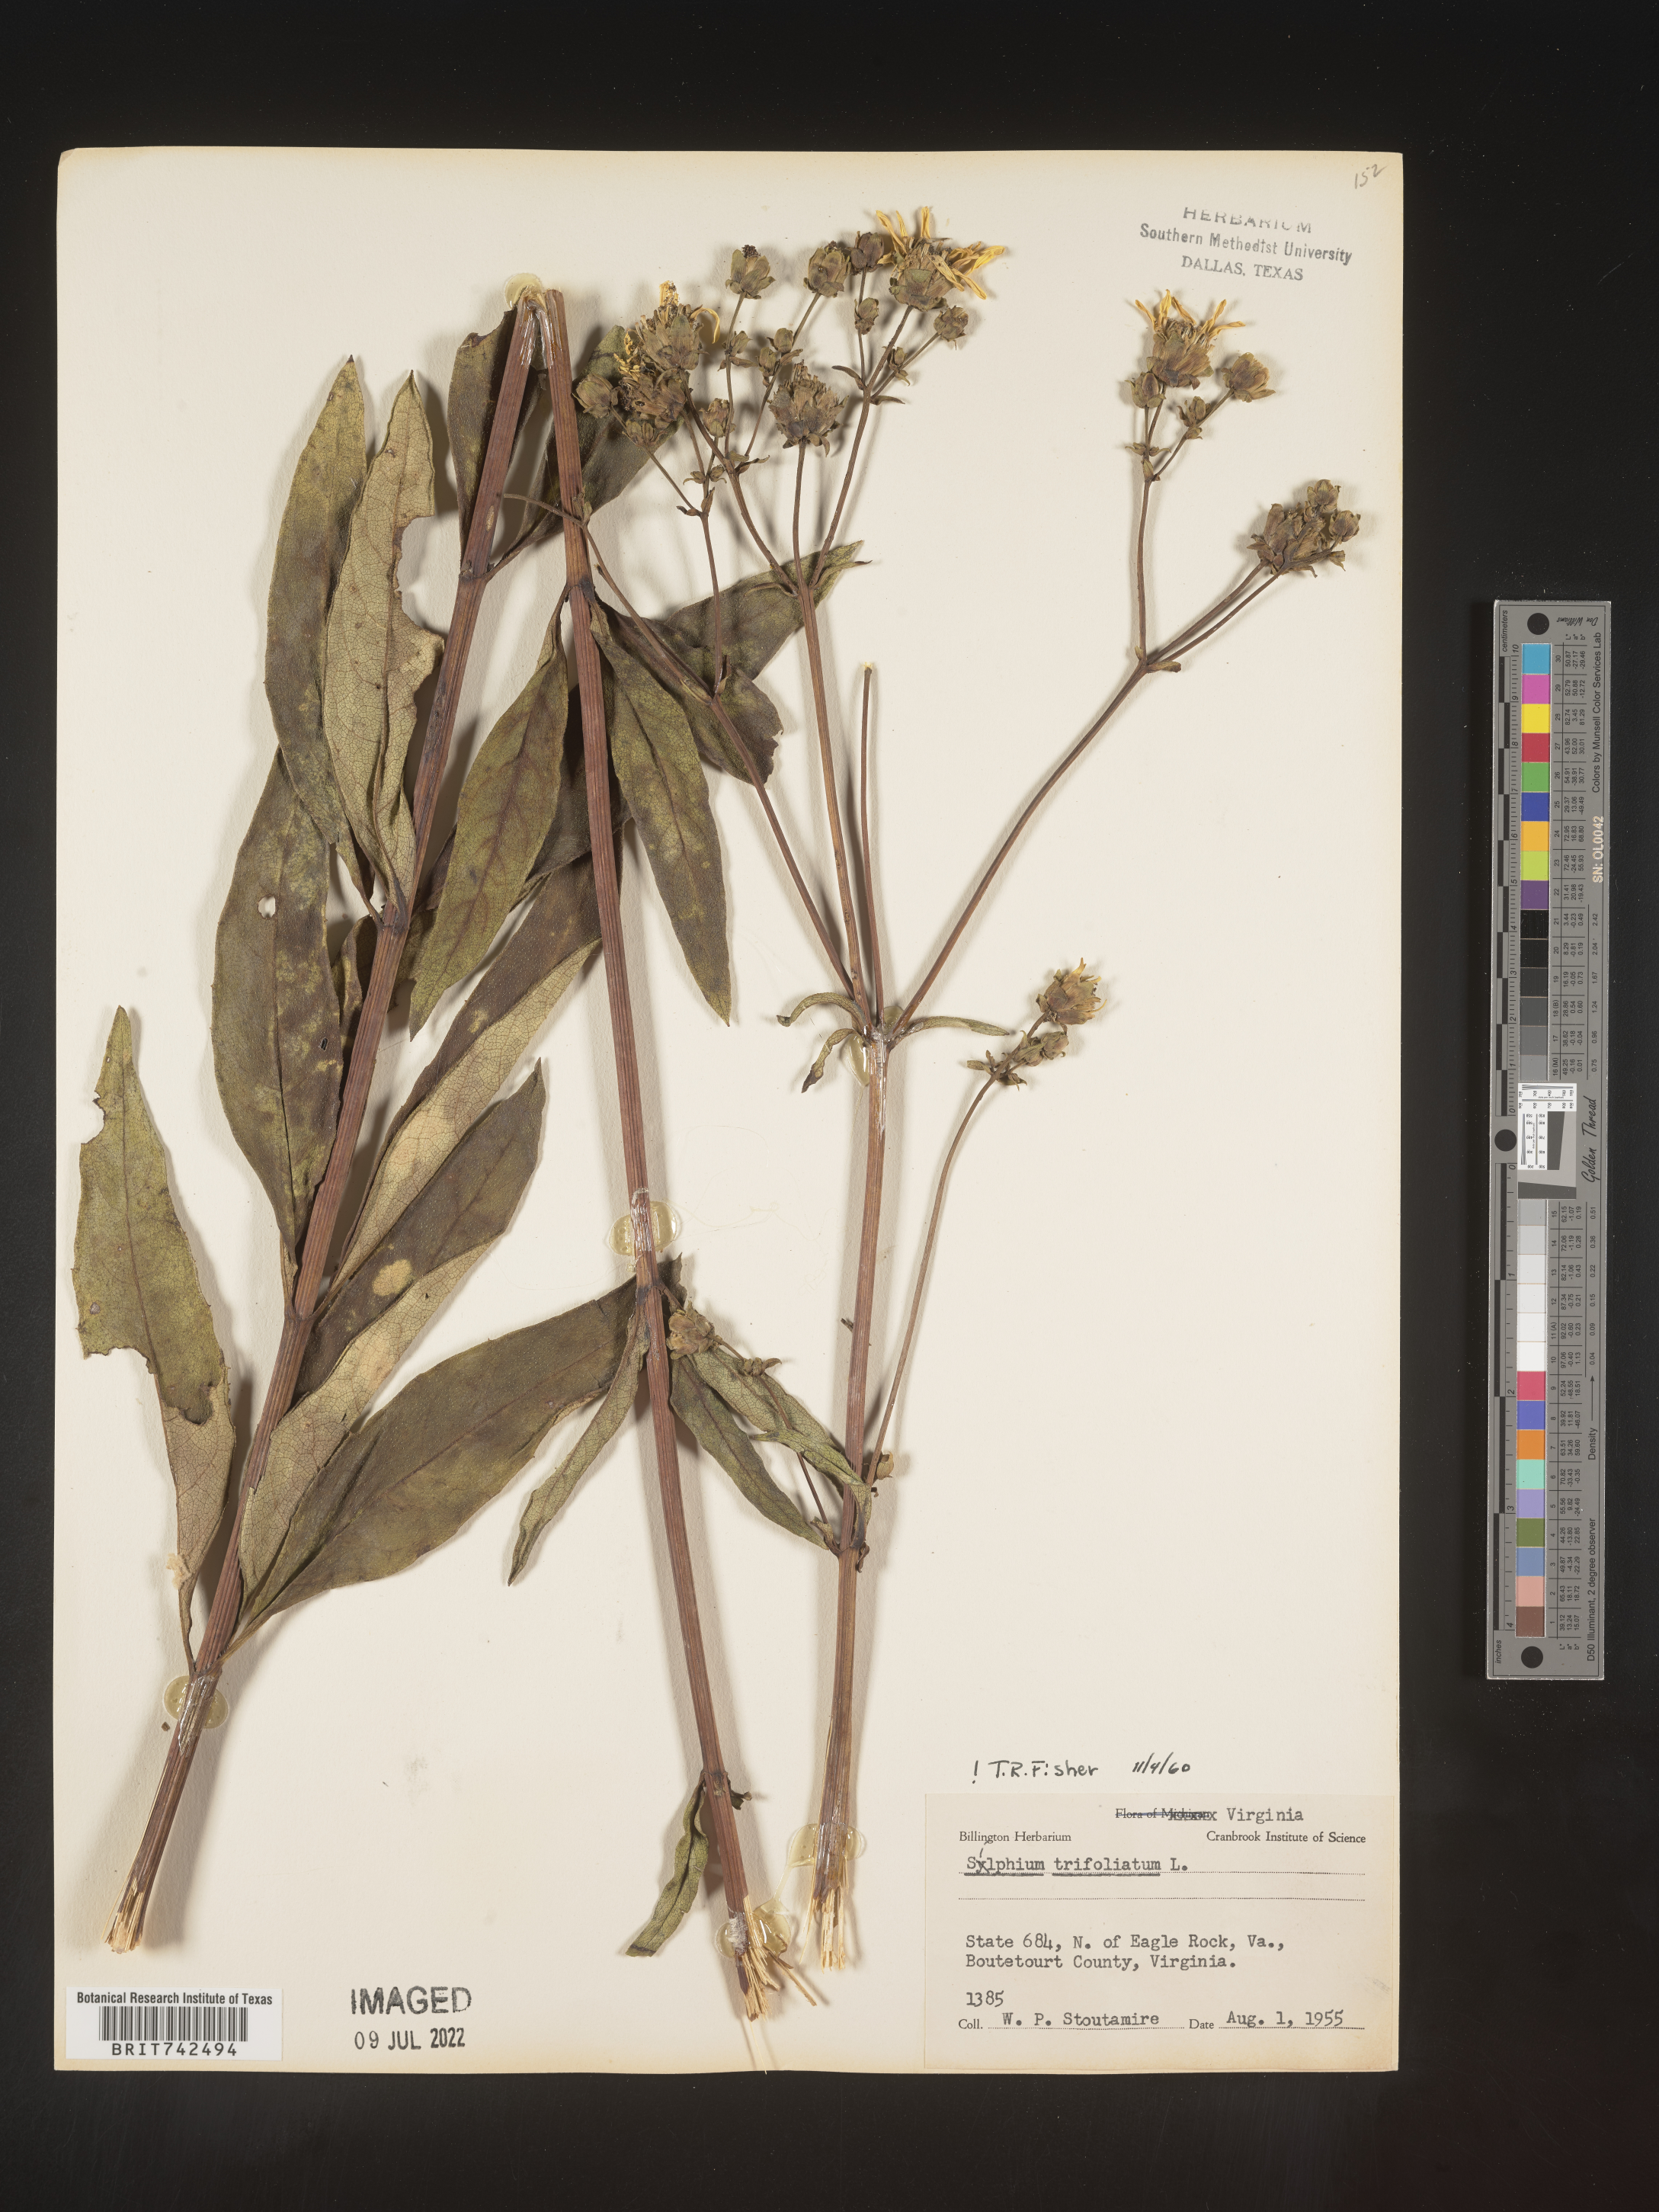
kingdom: Plantae
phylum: Tracheophyta
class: Magnoliopsida
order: Asterales
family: Asteraceae
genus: Silphium
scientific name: Silphium asteriscus
